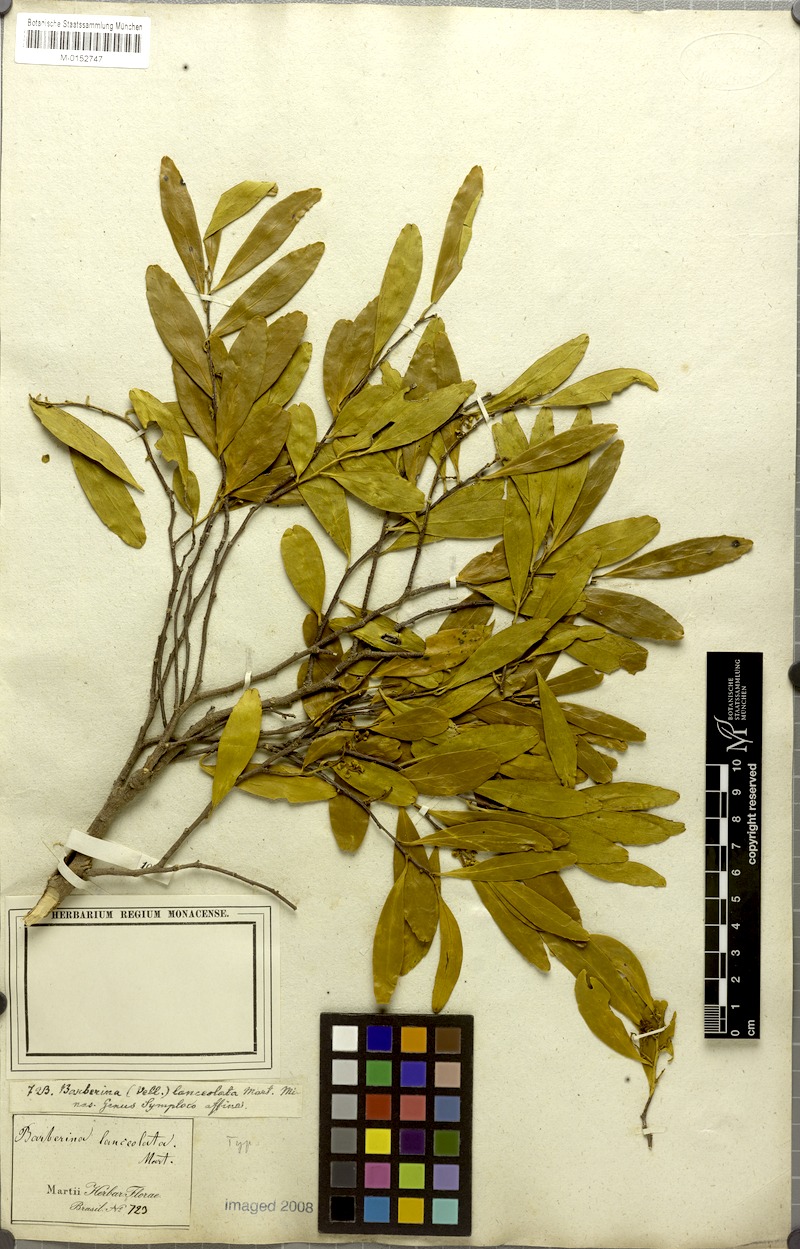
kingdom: Plantae
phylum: Tracheophyta
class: Magnoliopsida
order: Ericales
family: Symplocaceae
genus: Symplocos
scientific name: Symplocos oblongifolia
